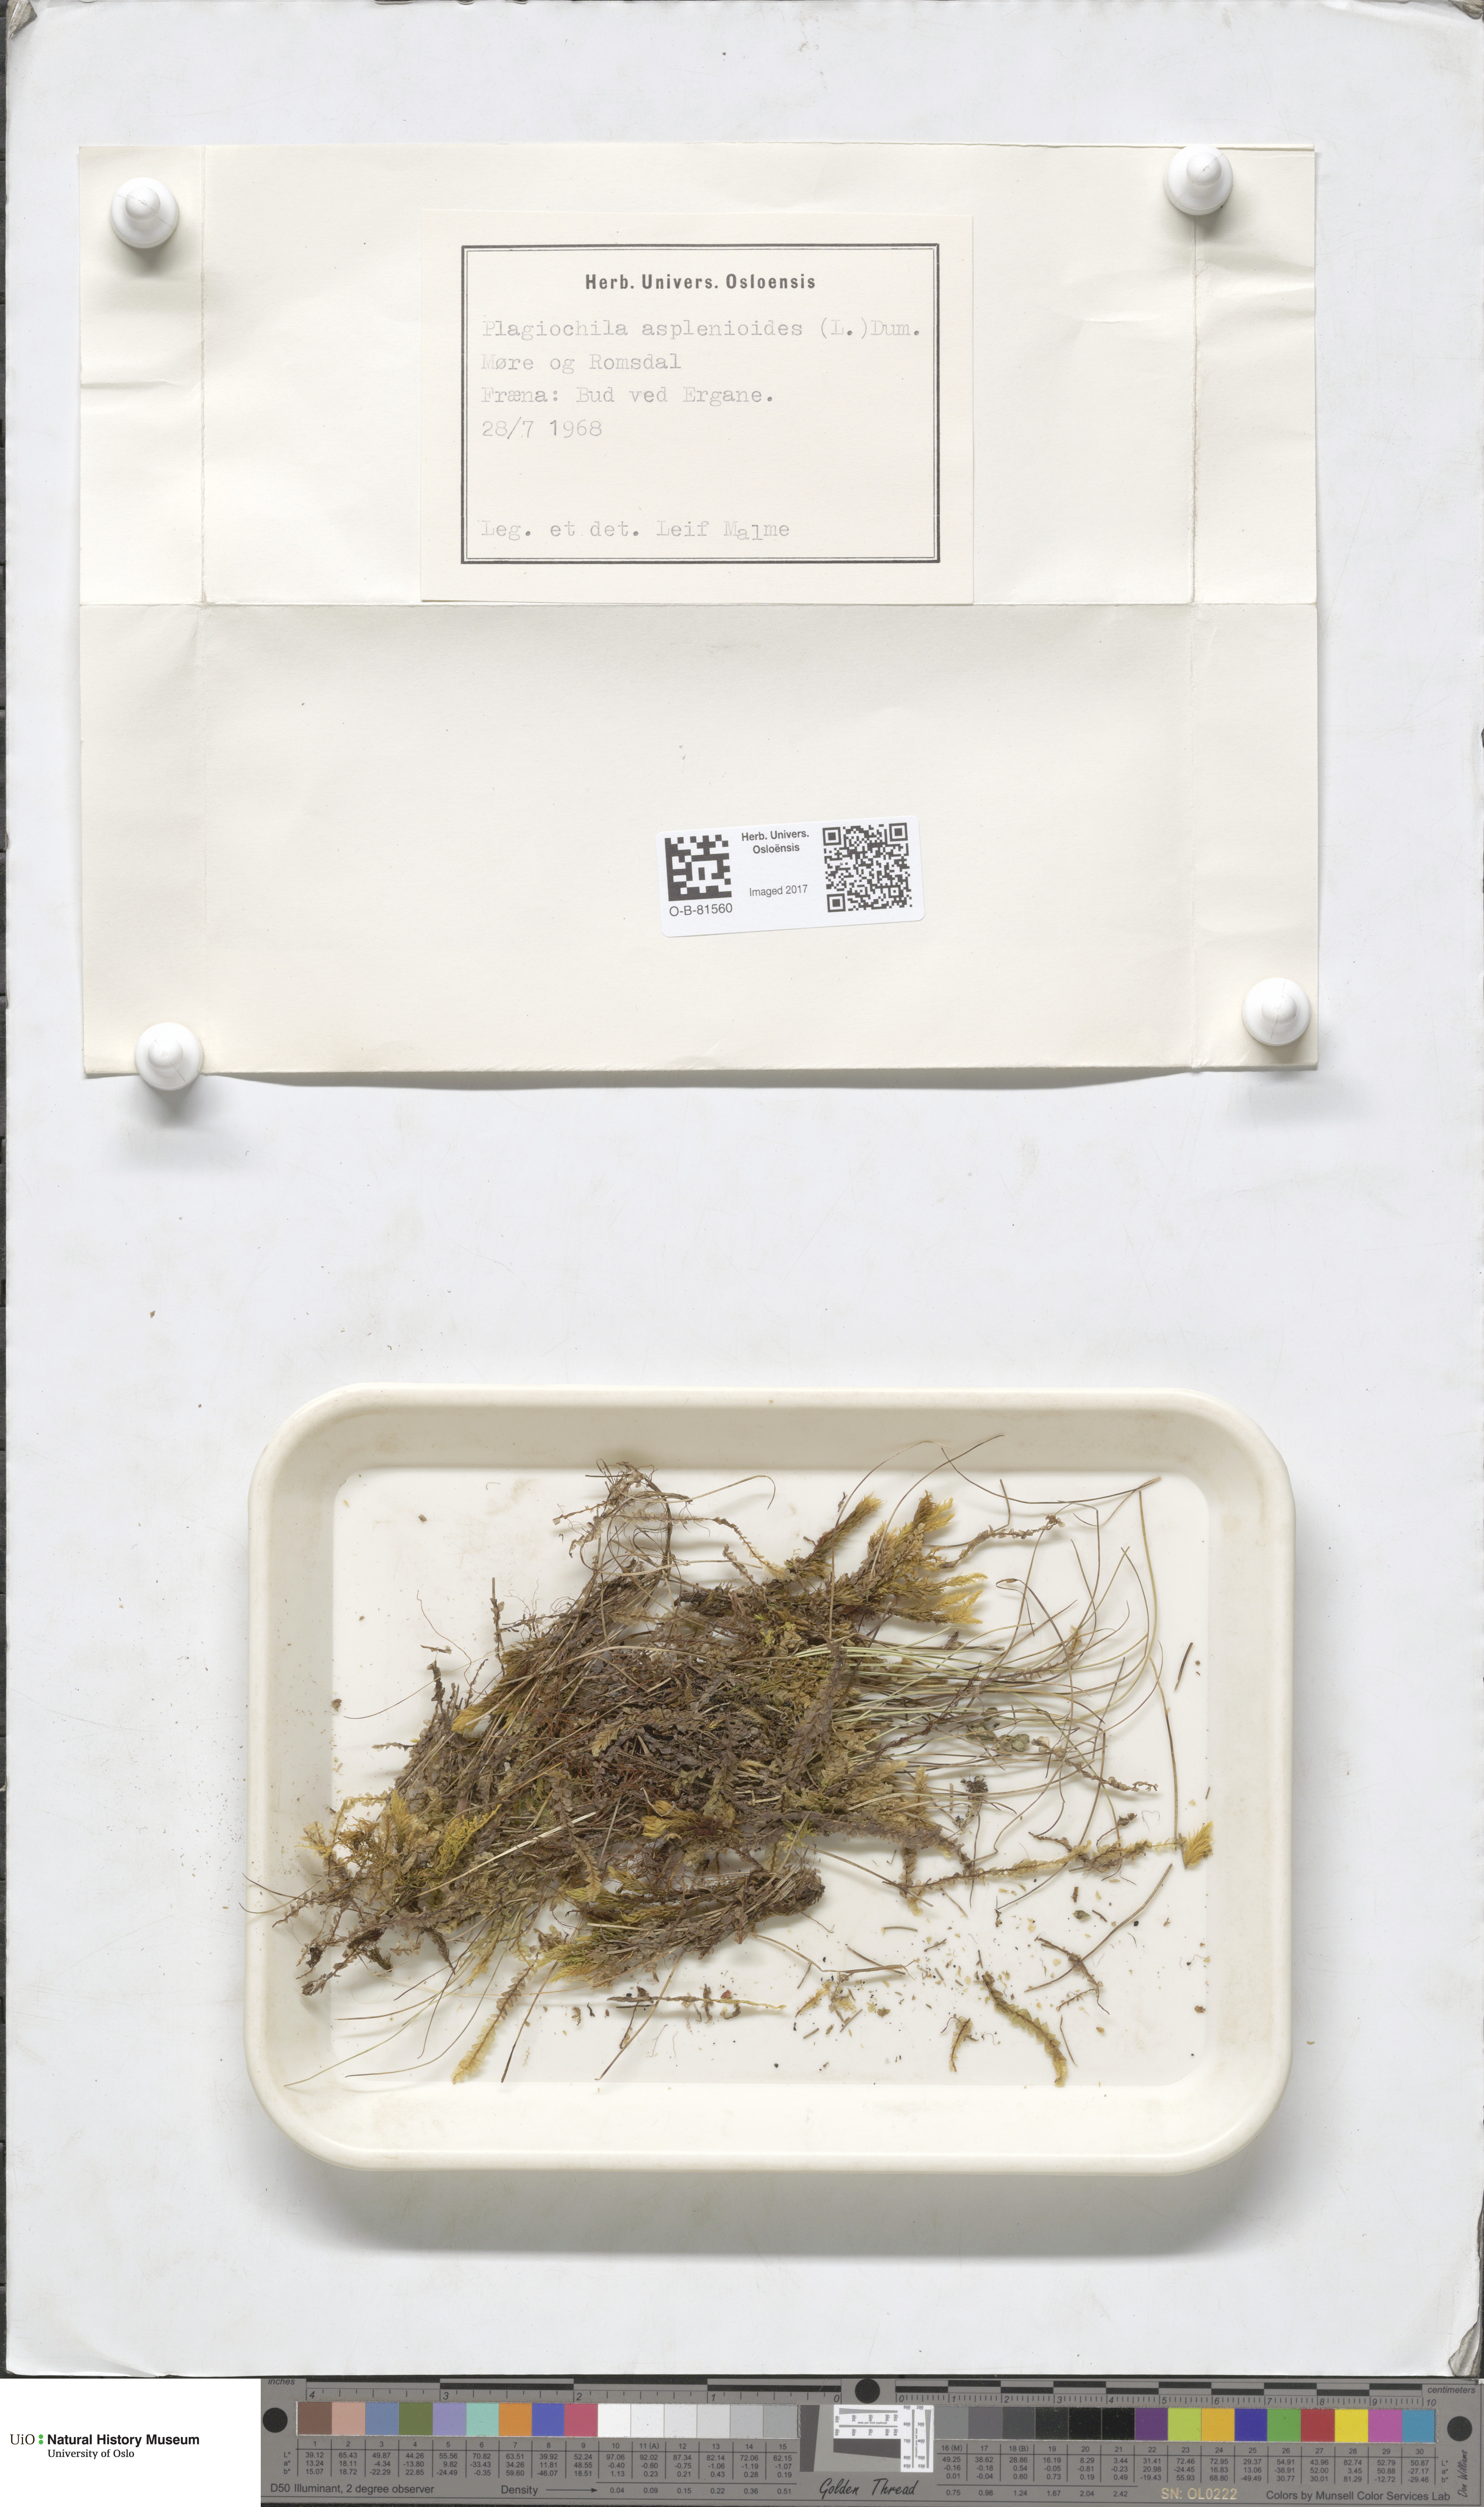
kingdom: Plantae
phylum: Marchantiophyta
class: Jungermanniopsida
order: Jungermanniales
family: Plagiochilaceae
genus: Plagiochila
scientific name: Plagiochila asplenioides
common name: Greater featherwort
